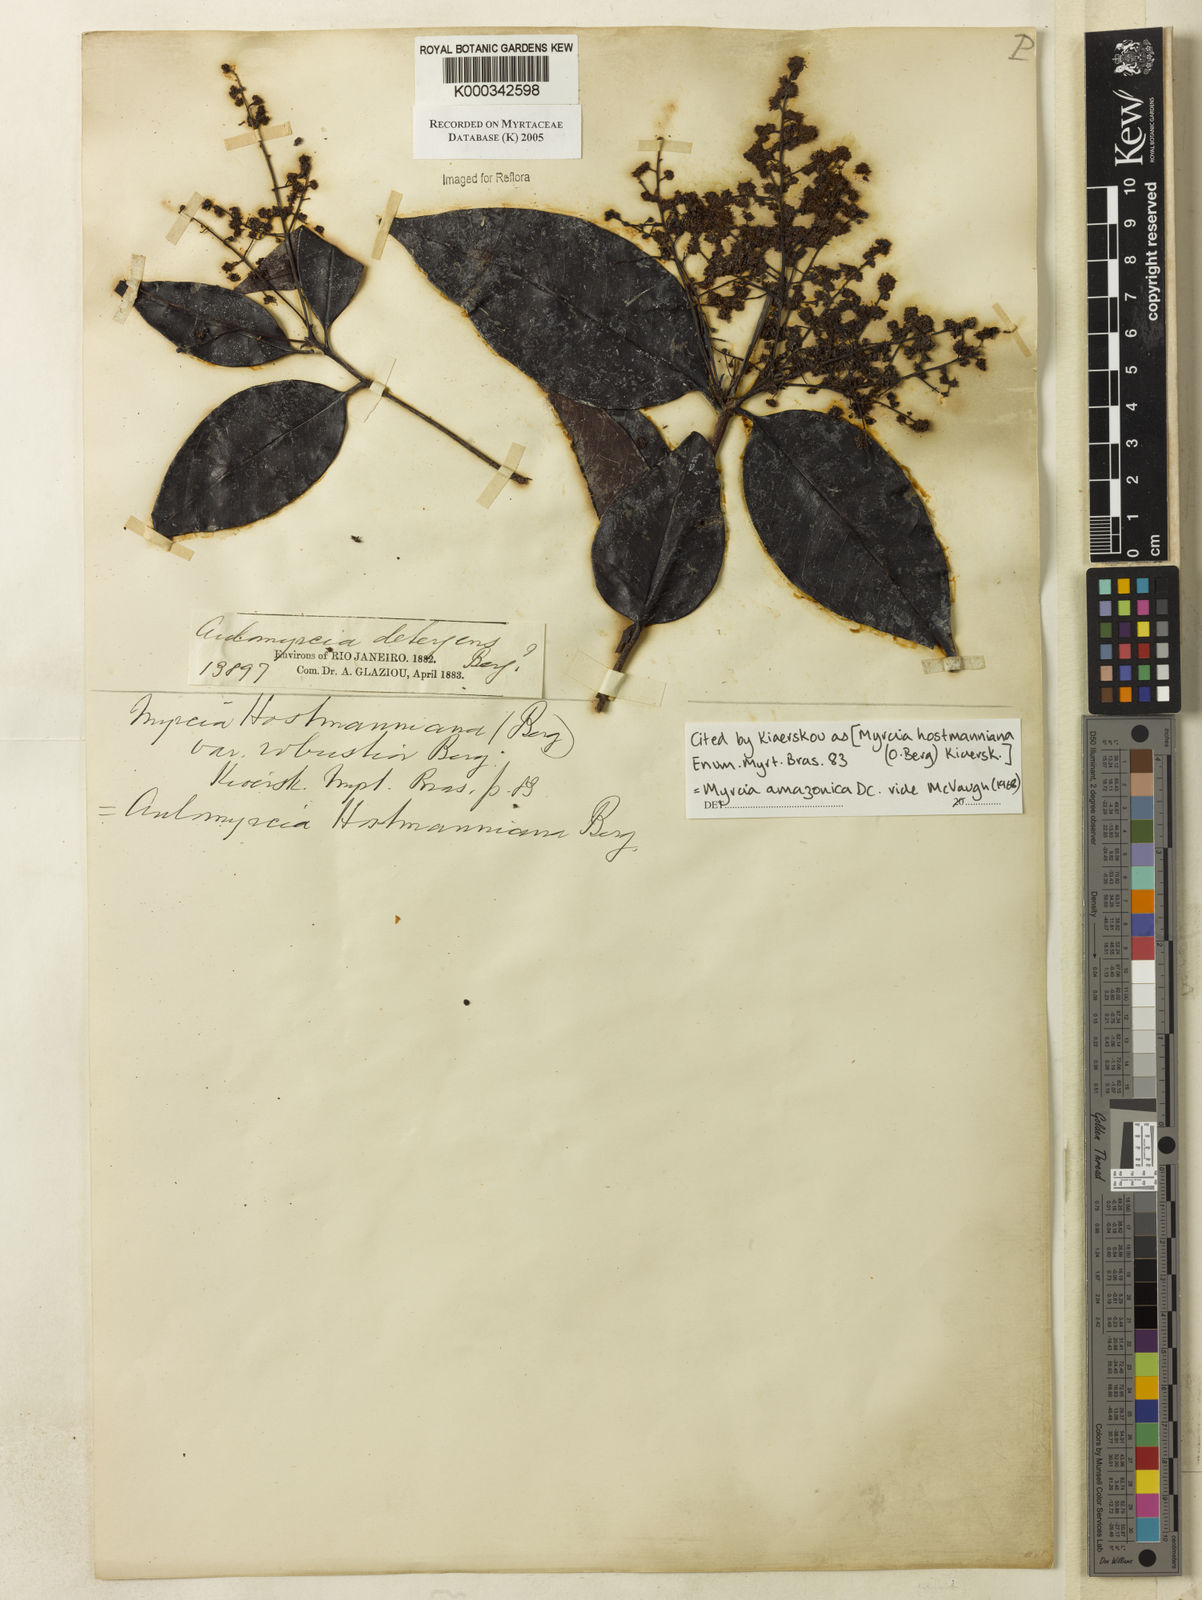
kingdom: Plantae
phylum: Tracheophyta
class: Magnoliopsida
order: Myrtales
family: Myrtaceae
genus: Myrcia
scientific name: Myrcia amazonica
